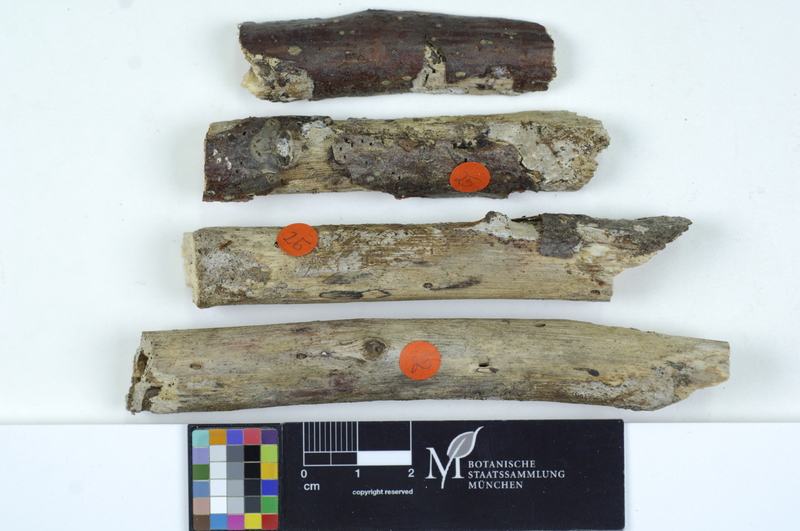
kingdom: Plantae
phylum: Tracheophyta
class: Magnoliopsida
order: Fagales
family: Fagaceae
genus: Fagus
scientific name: Fagus sylvatica
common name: Beech
